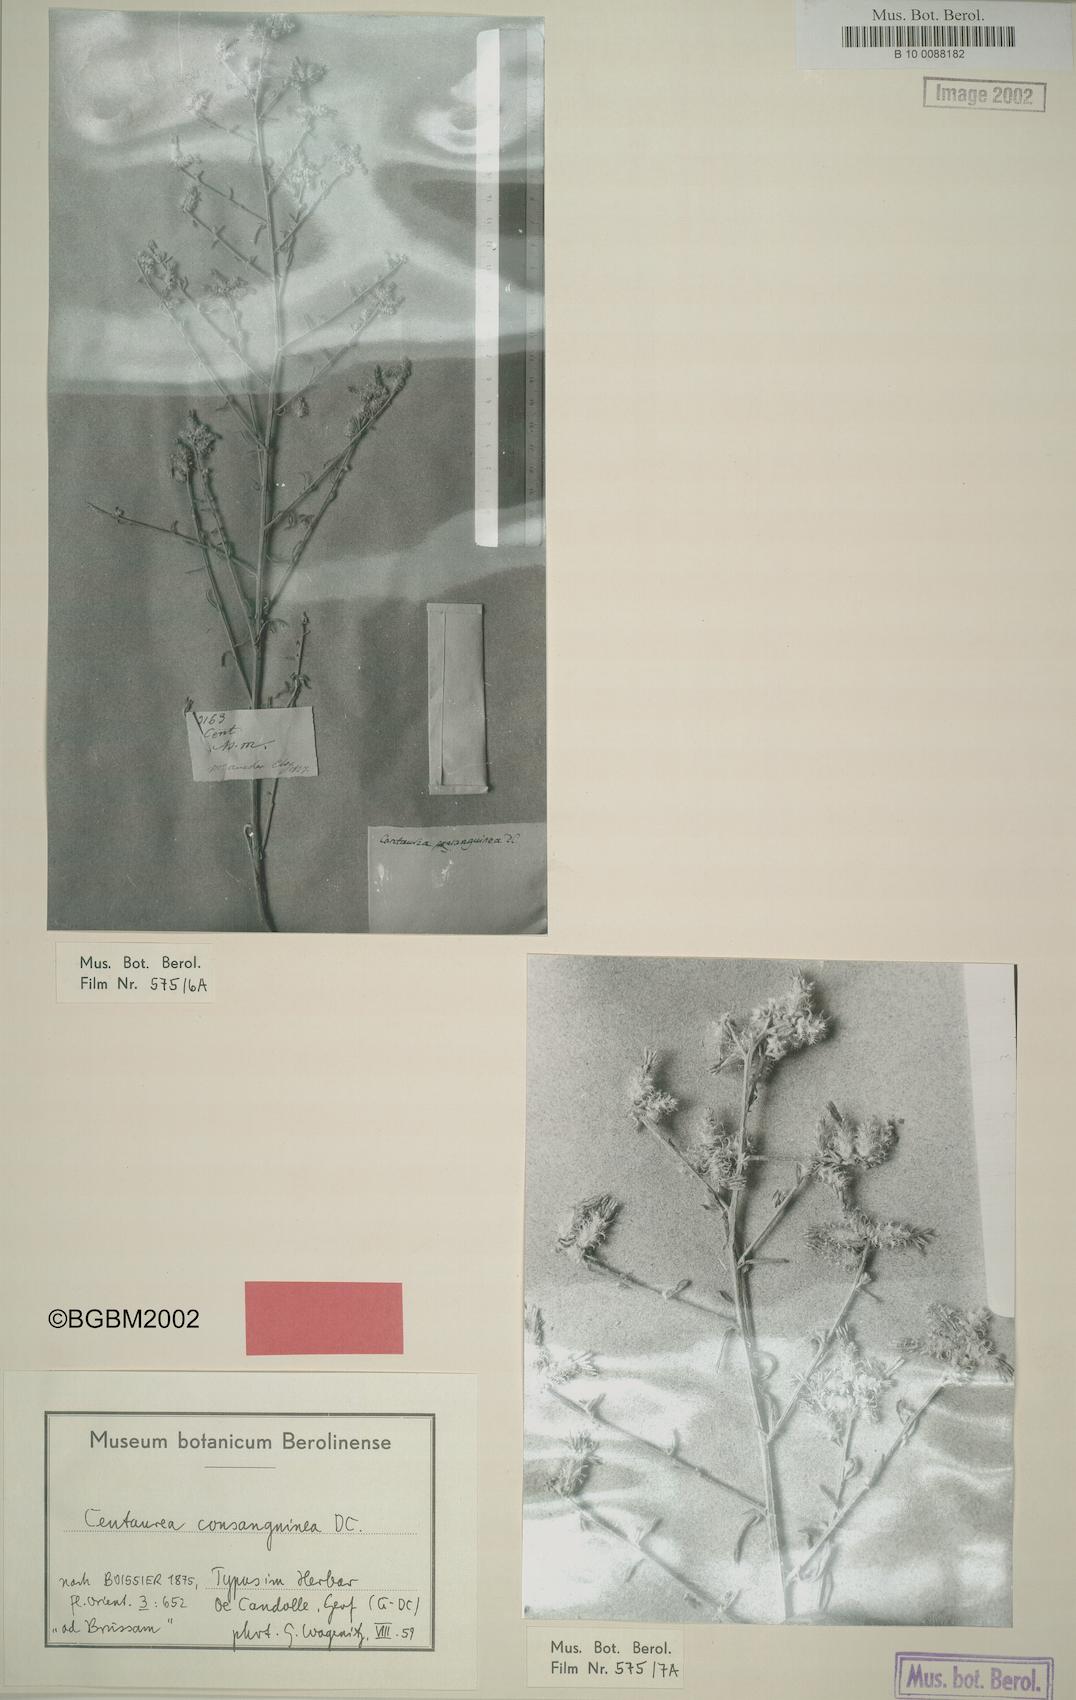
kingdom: Plantae
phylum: Tracheophyta
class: Magnoliopsida
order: Asterales
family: Asteraceae
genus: Centaurea
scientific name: Centaurea consanguinea
